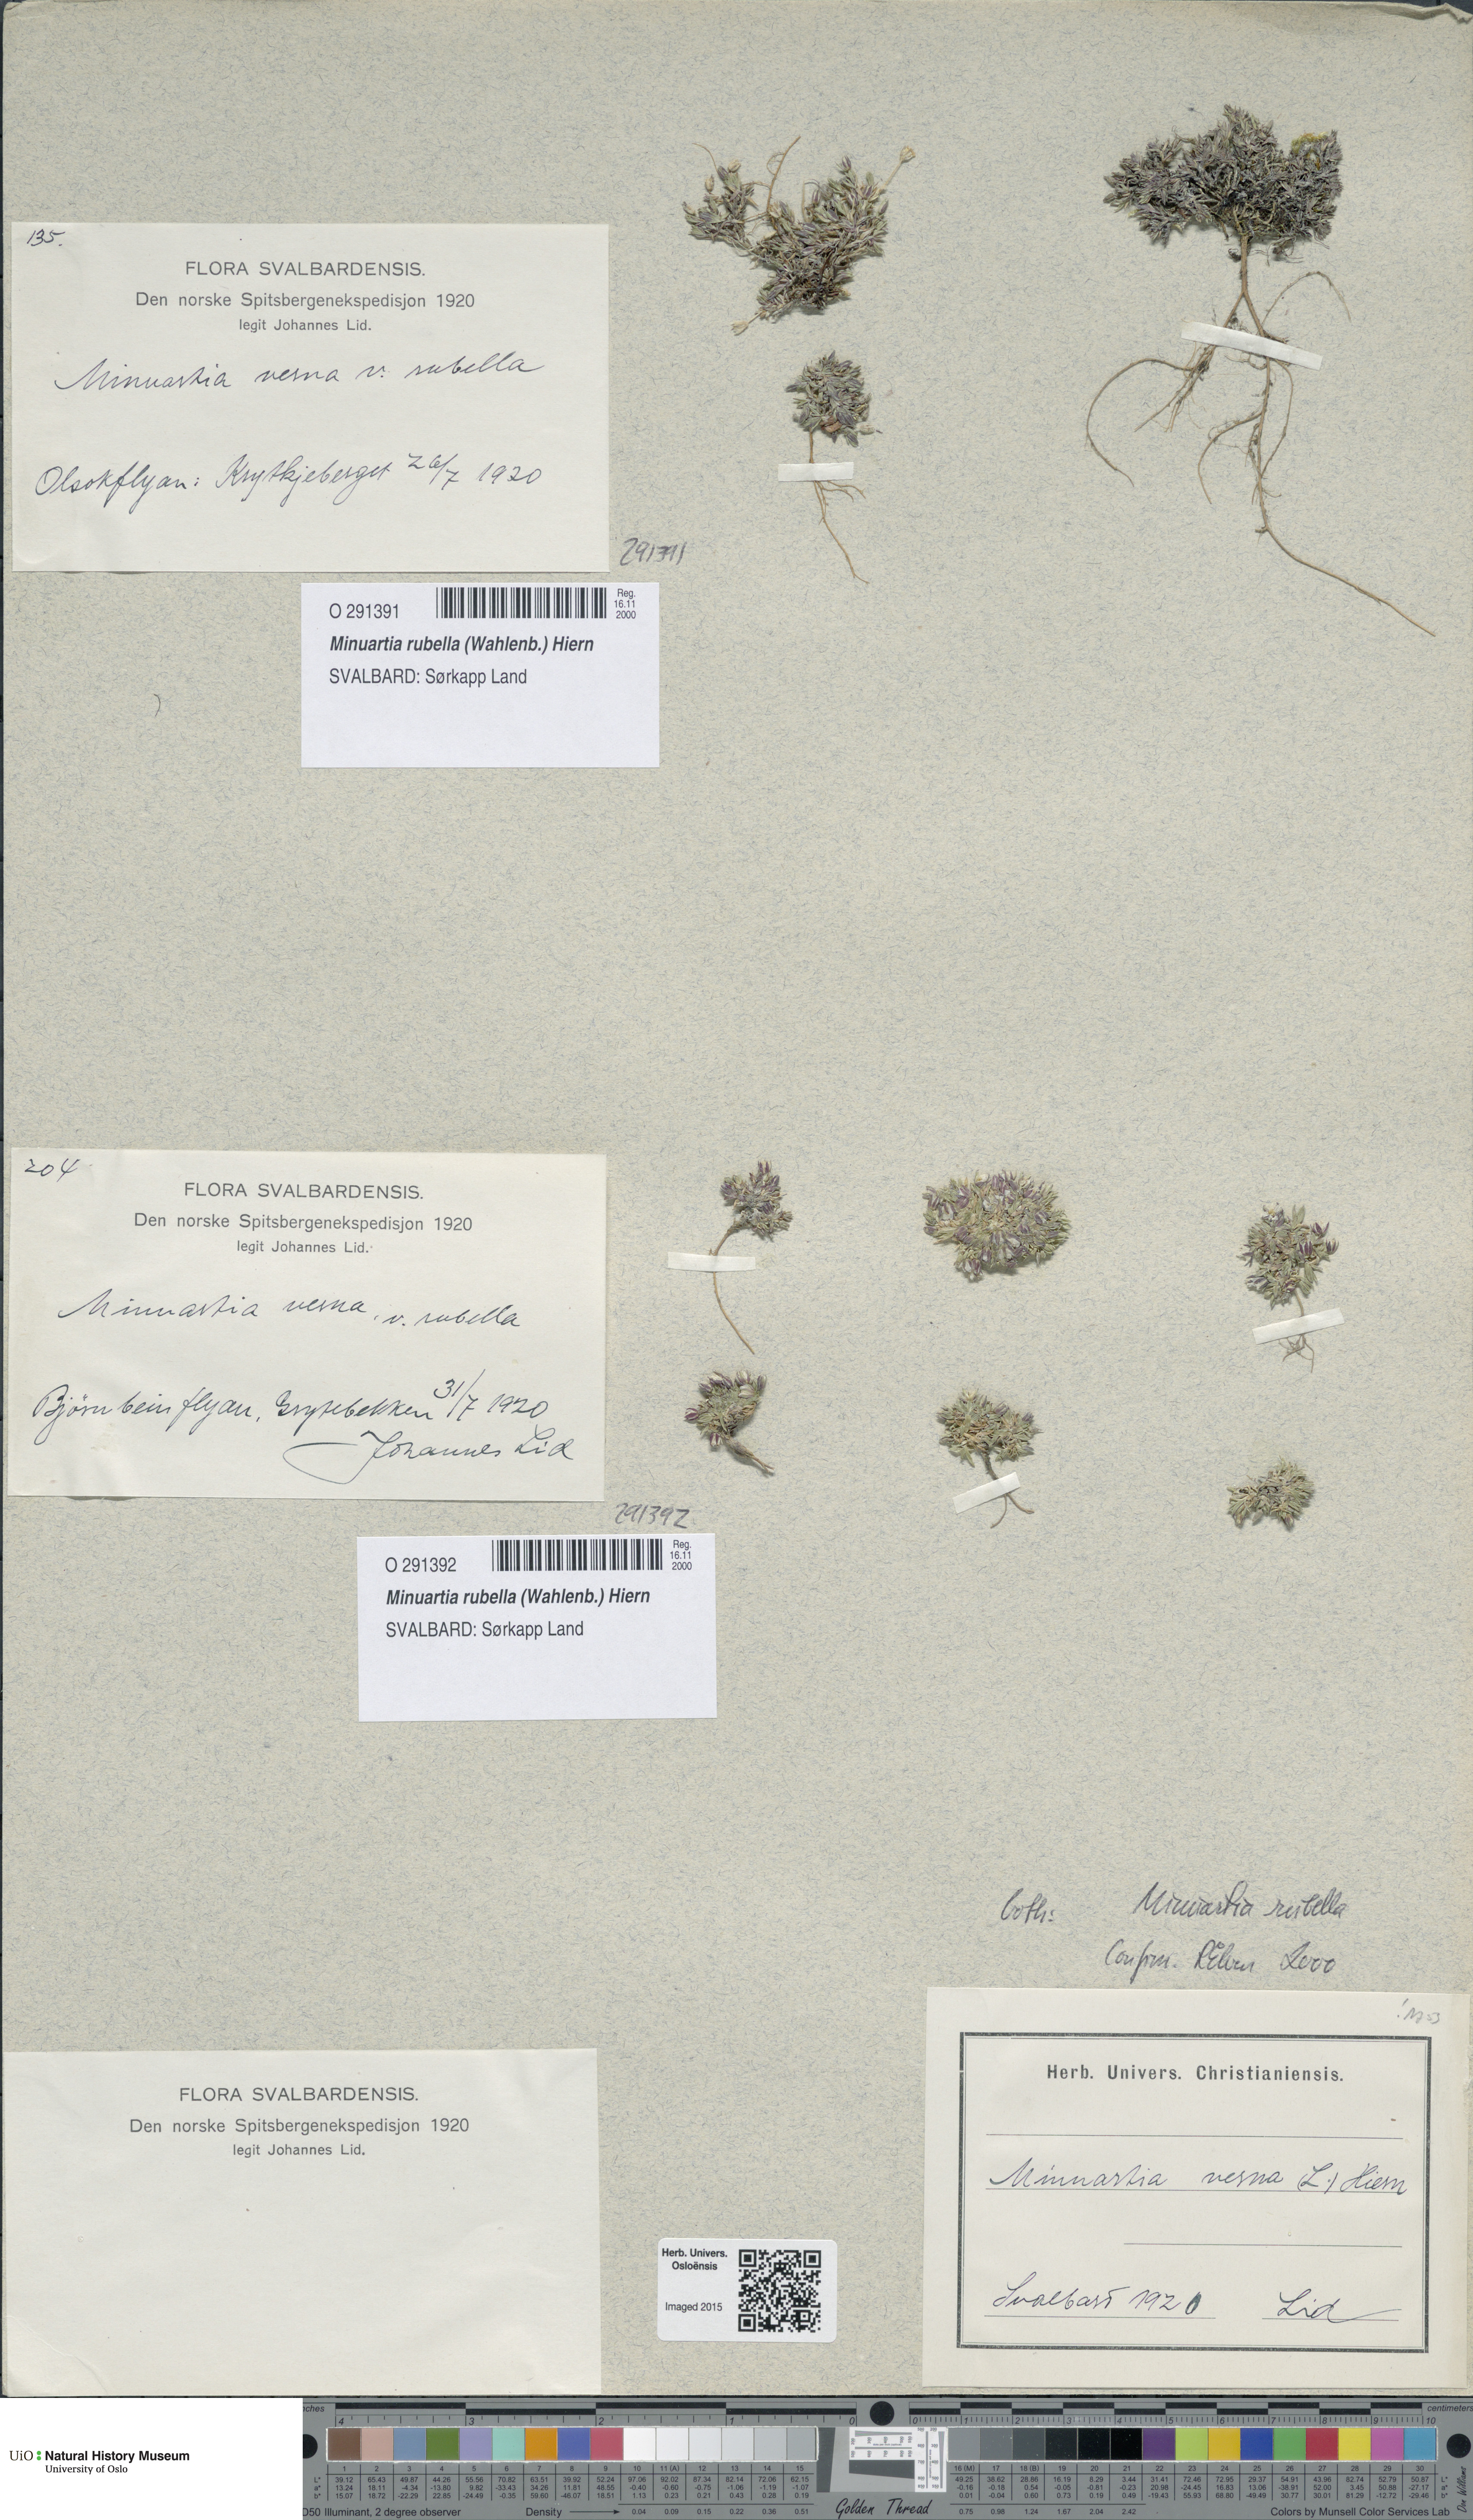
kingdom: Plantae
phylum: Tracheophyta
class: Magnoliopsida
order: Caryophyllales
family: Caryophyllaceae
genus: Sabulina
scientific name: Sabulina rubella
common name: Beautiful sandwort
